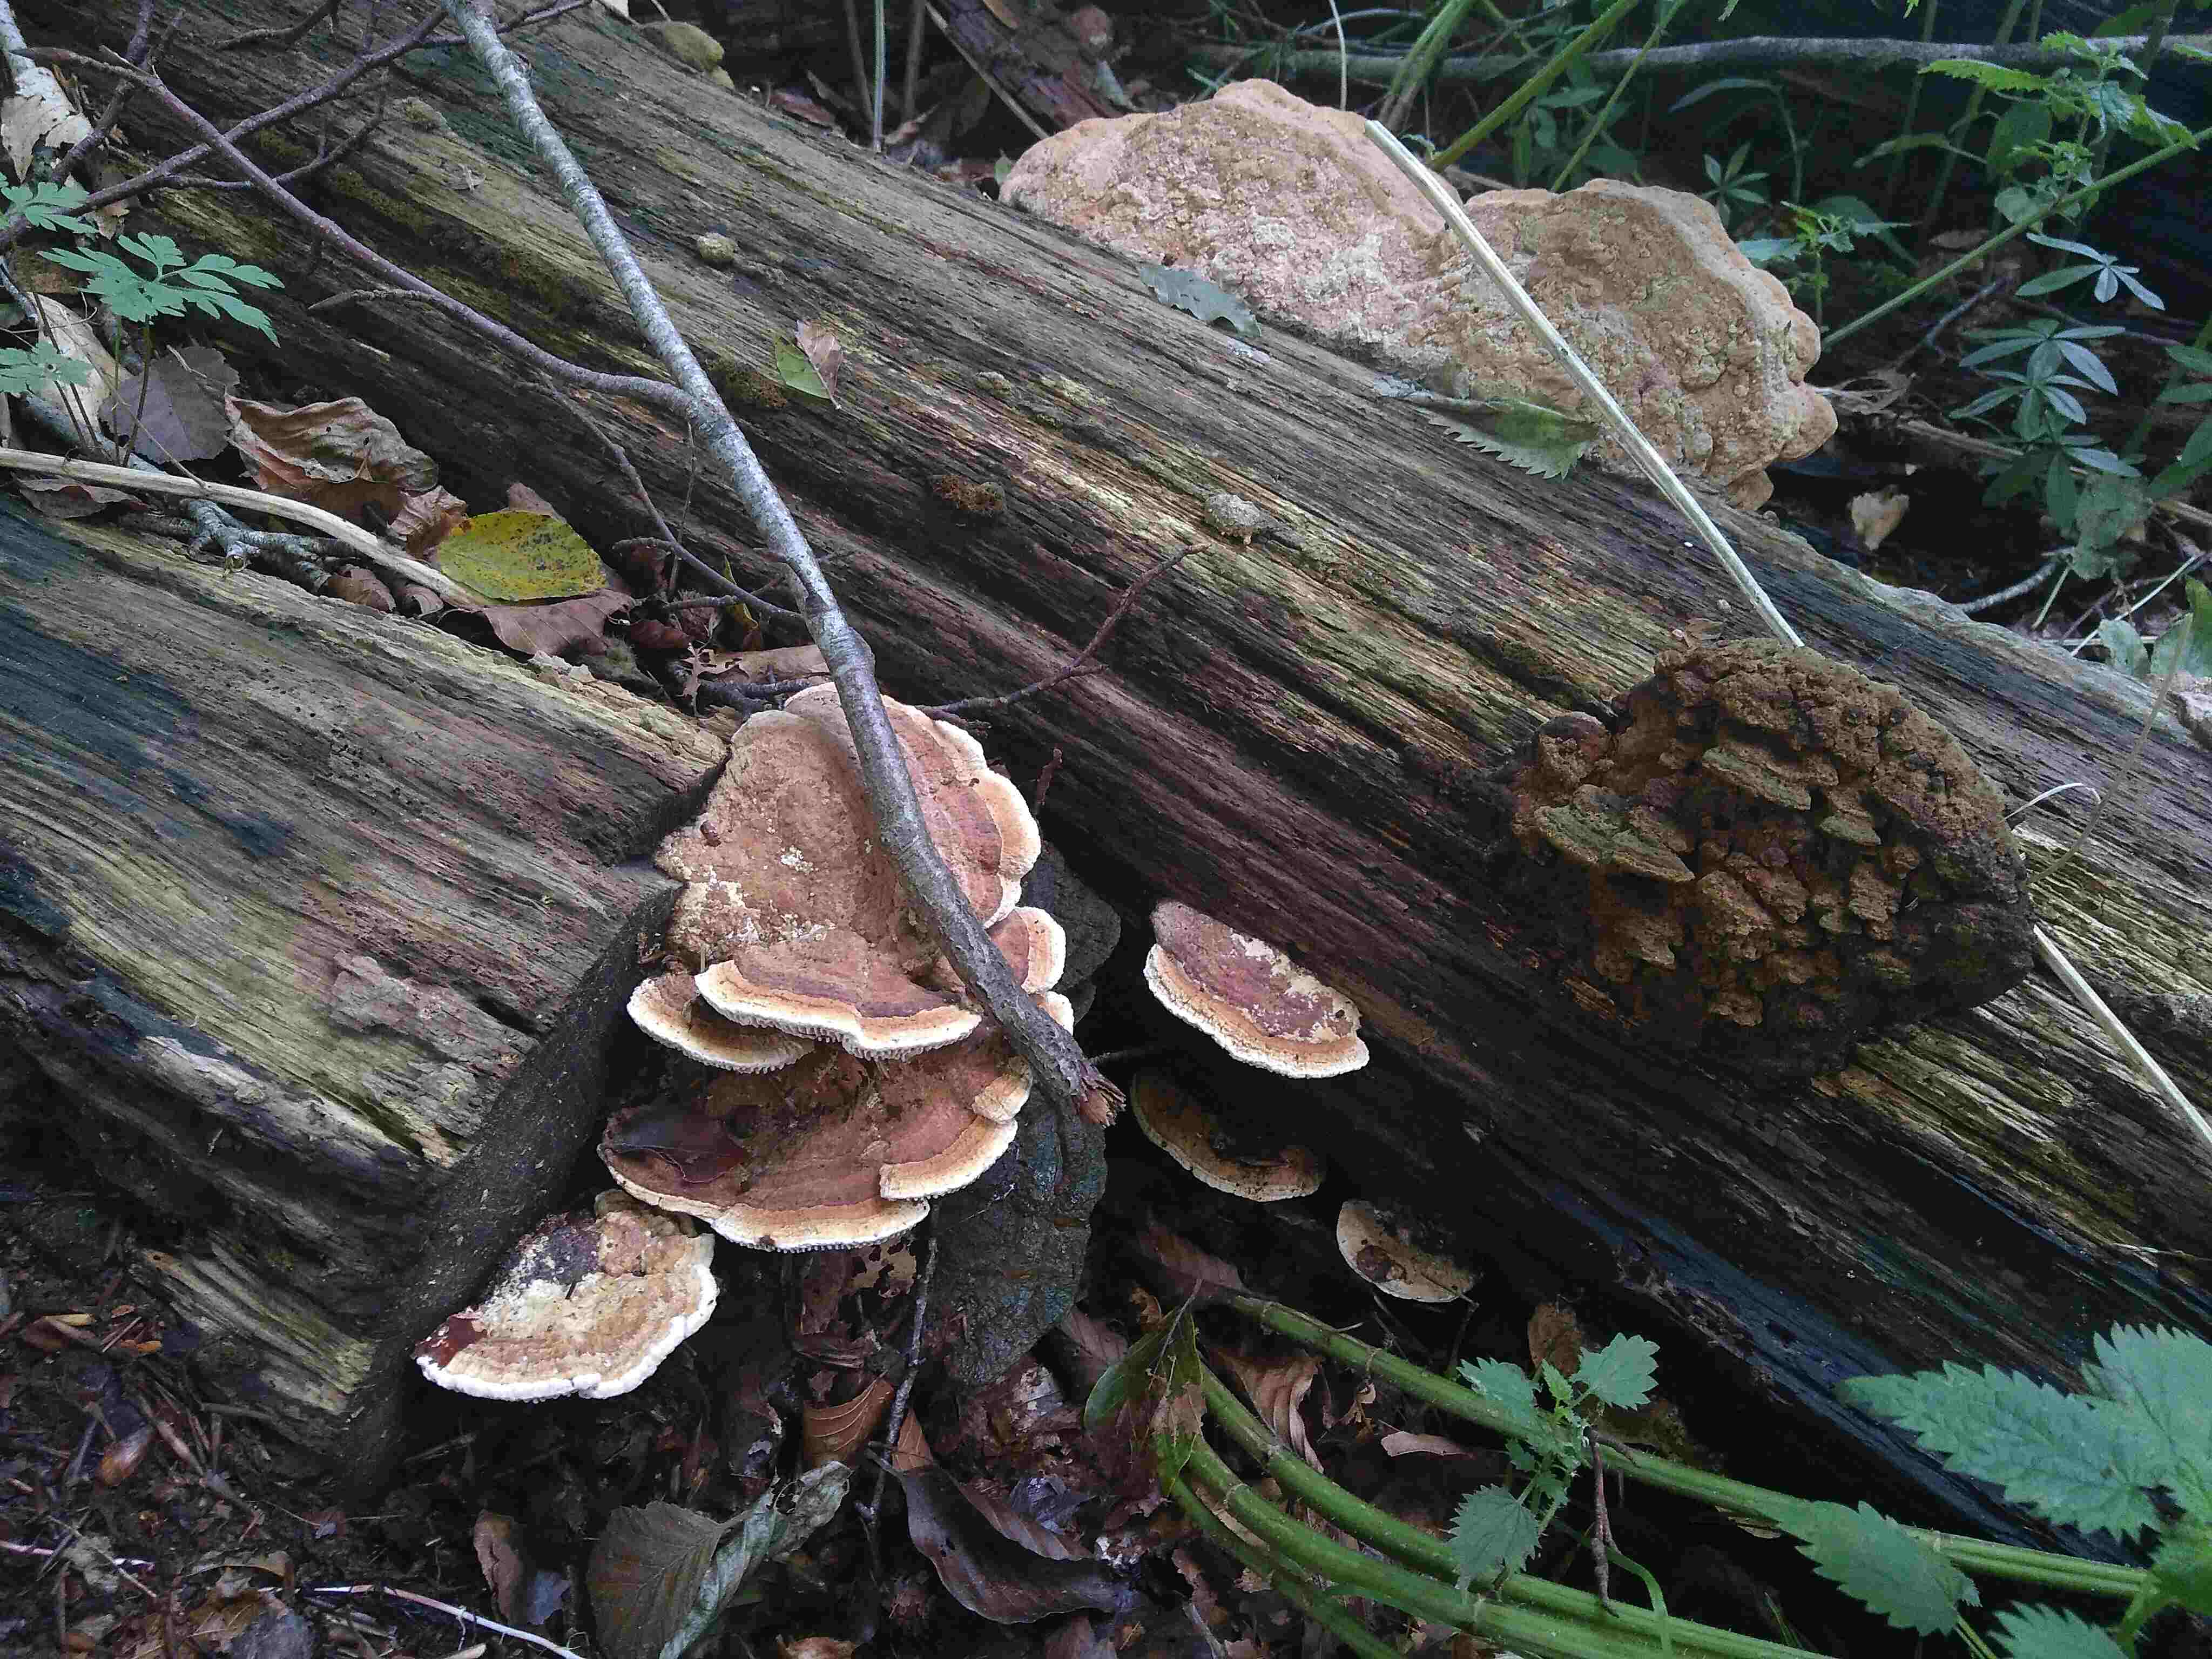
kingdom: Fungi
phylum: Basidiomycota
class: Agaricomycetes
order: Polyporales
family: Fomitopsidaceae
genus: Daedalea
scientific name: Daedalea quercina
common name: ege-labyrintsvamp
